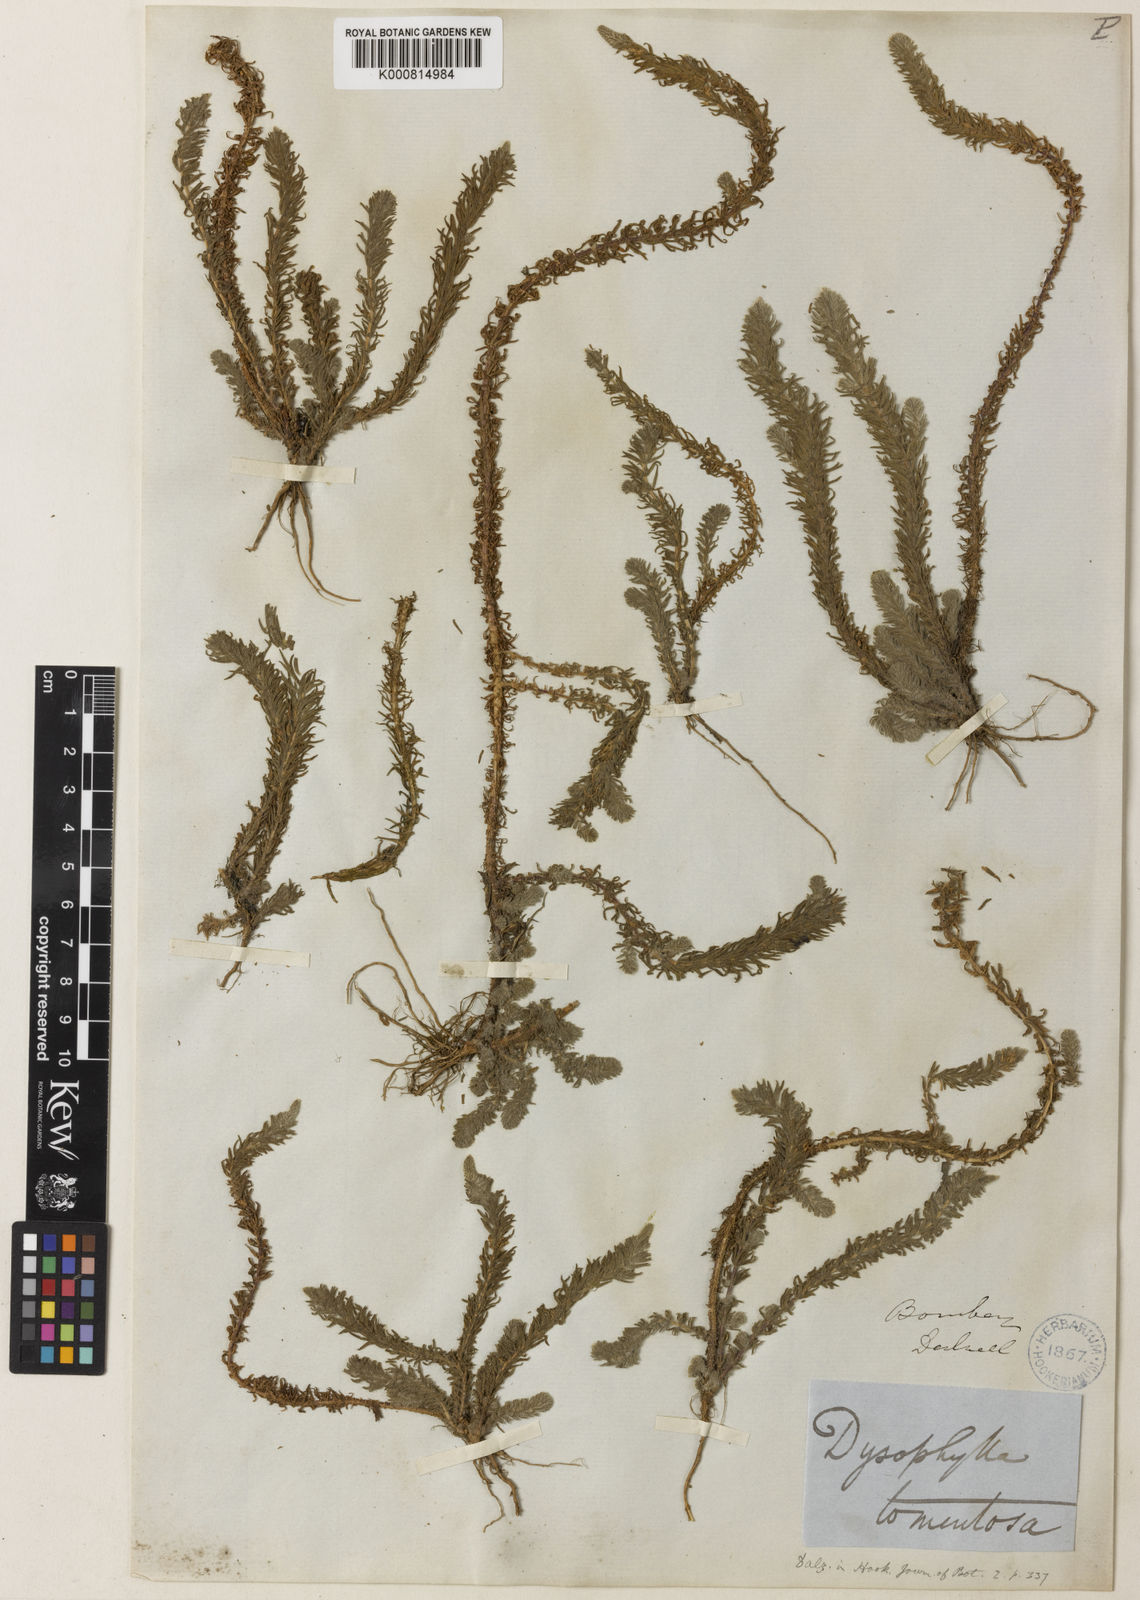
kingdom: Plantae
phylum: Tracheophyta
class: Magnoliopsida
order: Lamiales
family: Lamiaceae
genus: Pogostemon
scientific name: Pogostemon cablin
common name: Patchouli-plant
